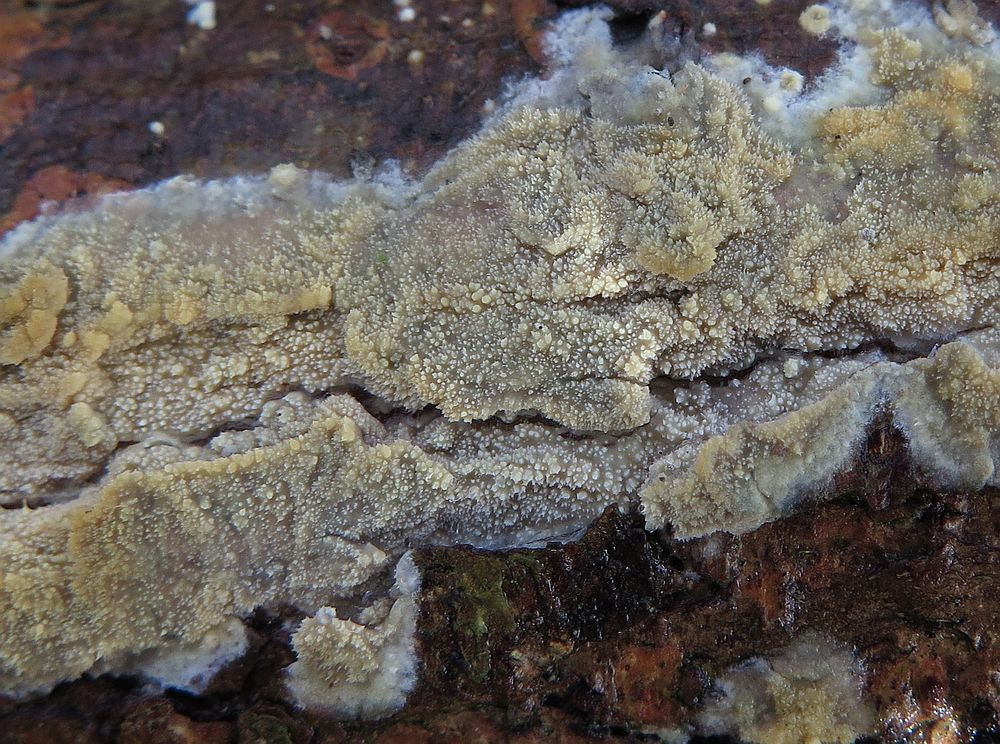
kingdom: Fungi
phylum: Basidiomycota
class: Agaricomycetes
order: Polyporales
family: Meruliaceae
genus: Scopuloides
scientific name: Scopuloides rimosa
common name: dughinde
